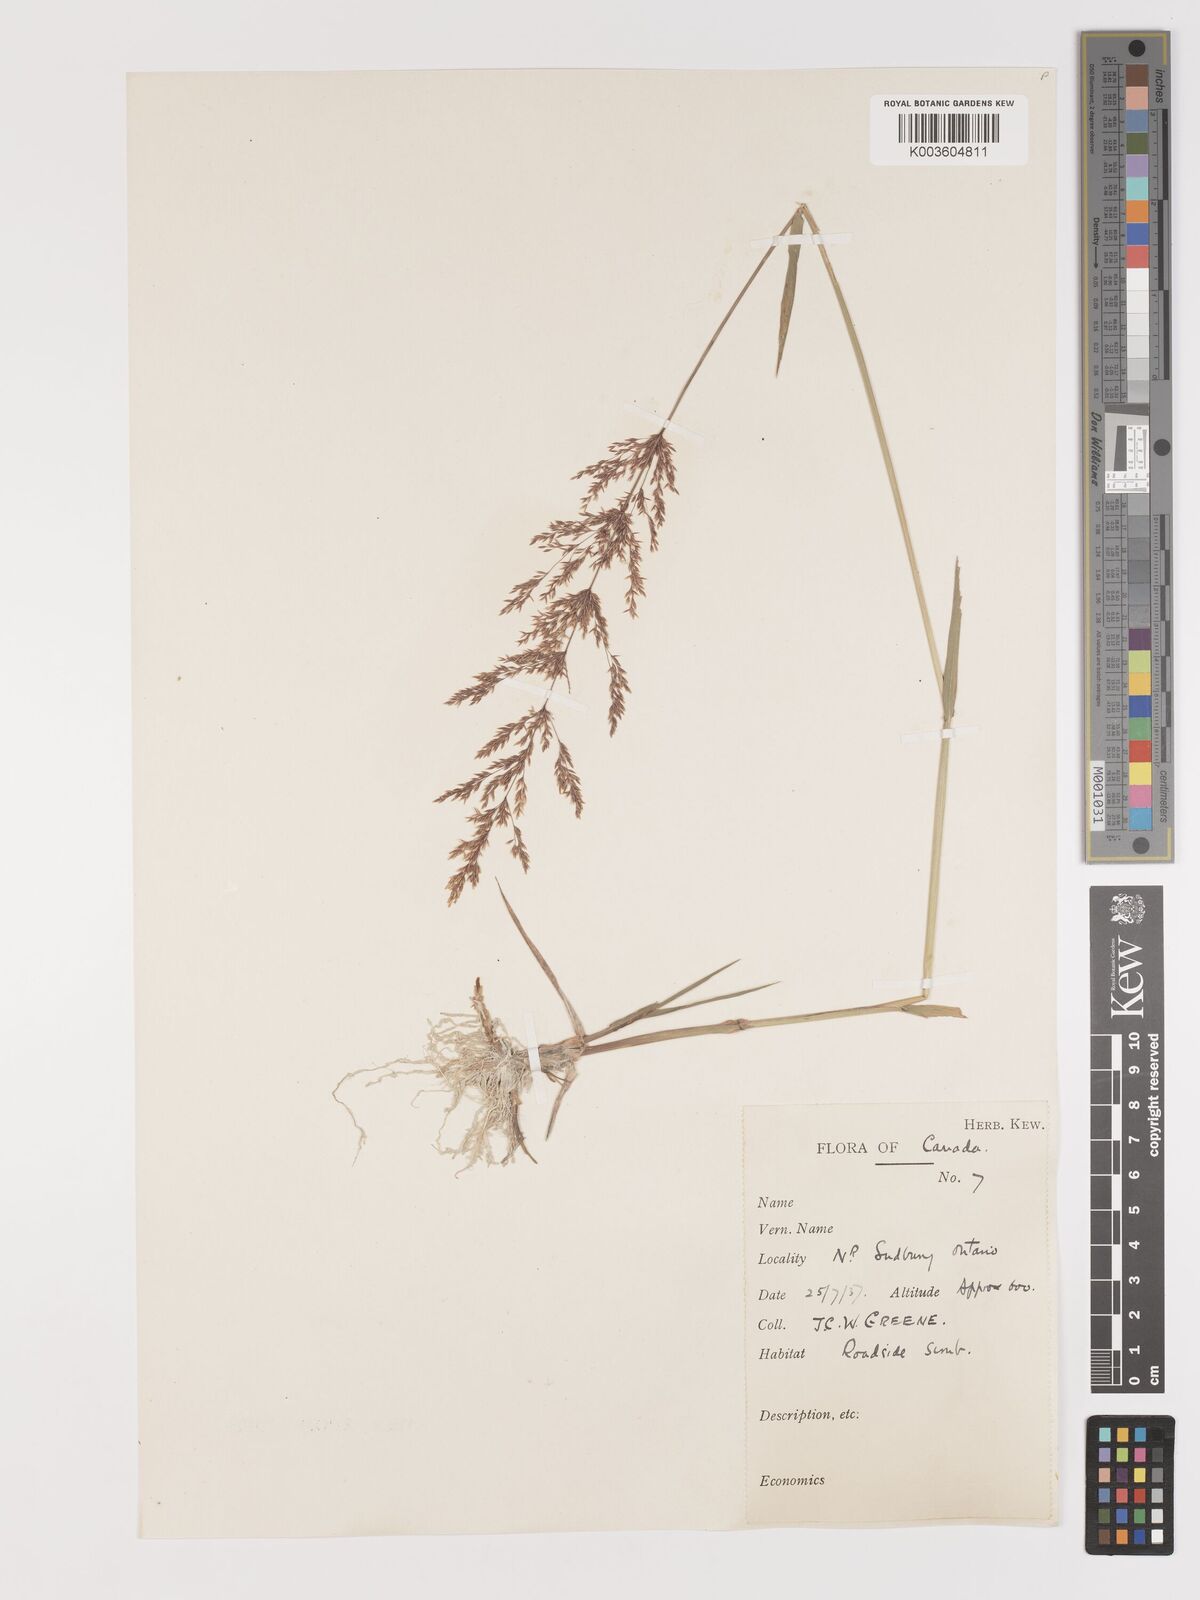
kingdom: Plantae
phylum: Tracheophyta
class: Liliopsida
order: Poales
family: Poaceae
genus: Agrostis
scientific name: Agrostis
